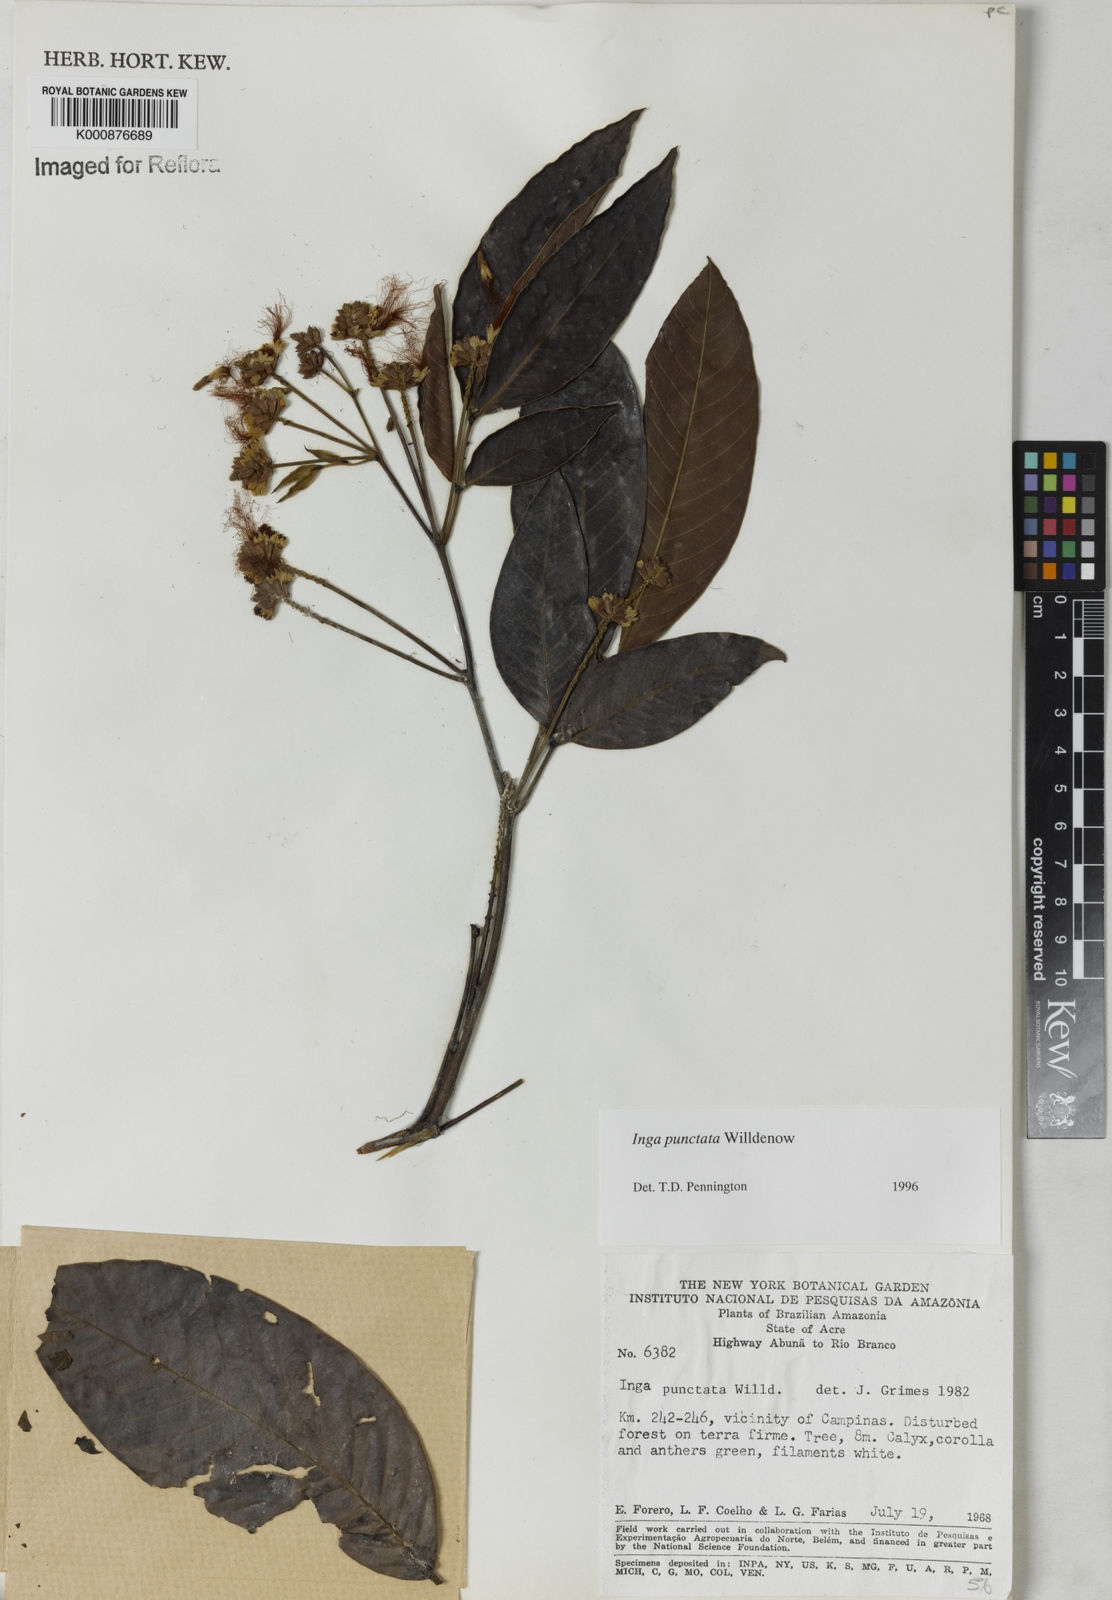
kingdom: Plantae
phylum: Tracheophyta
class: Magnoliopsida
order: Fabales
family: Fabaceae
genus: Inga
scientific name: Inga punctata
